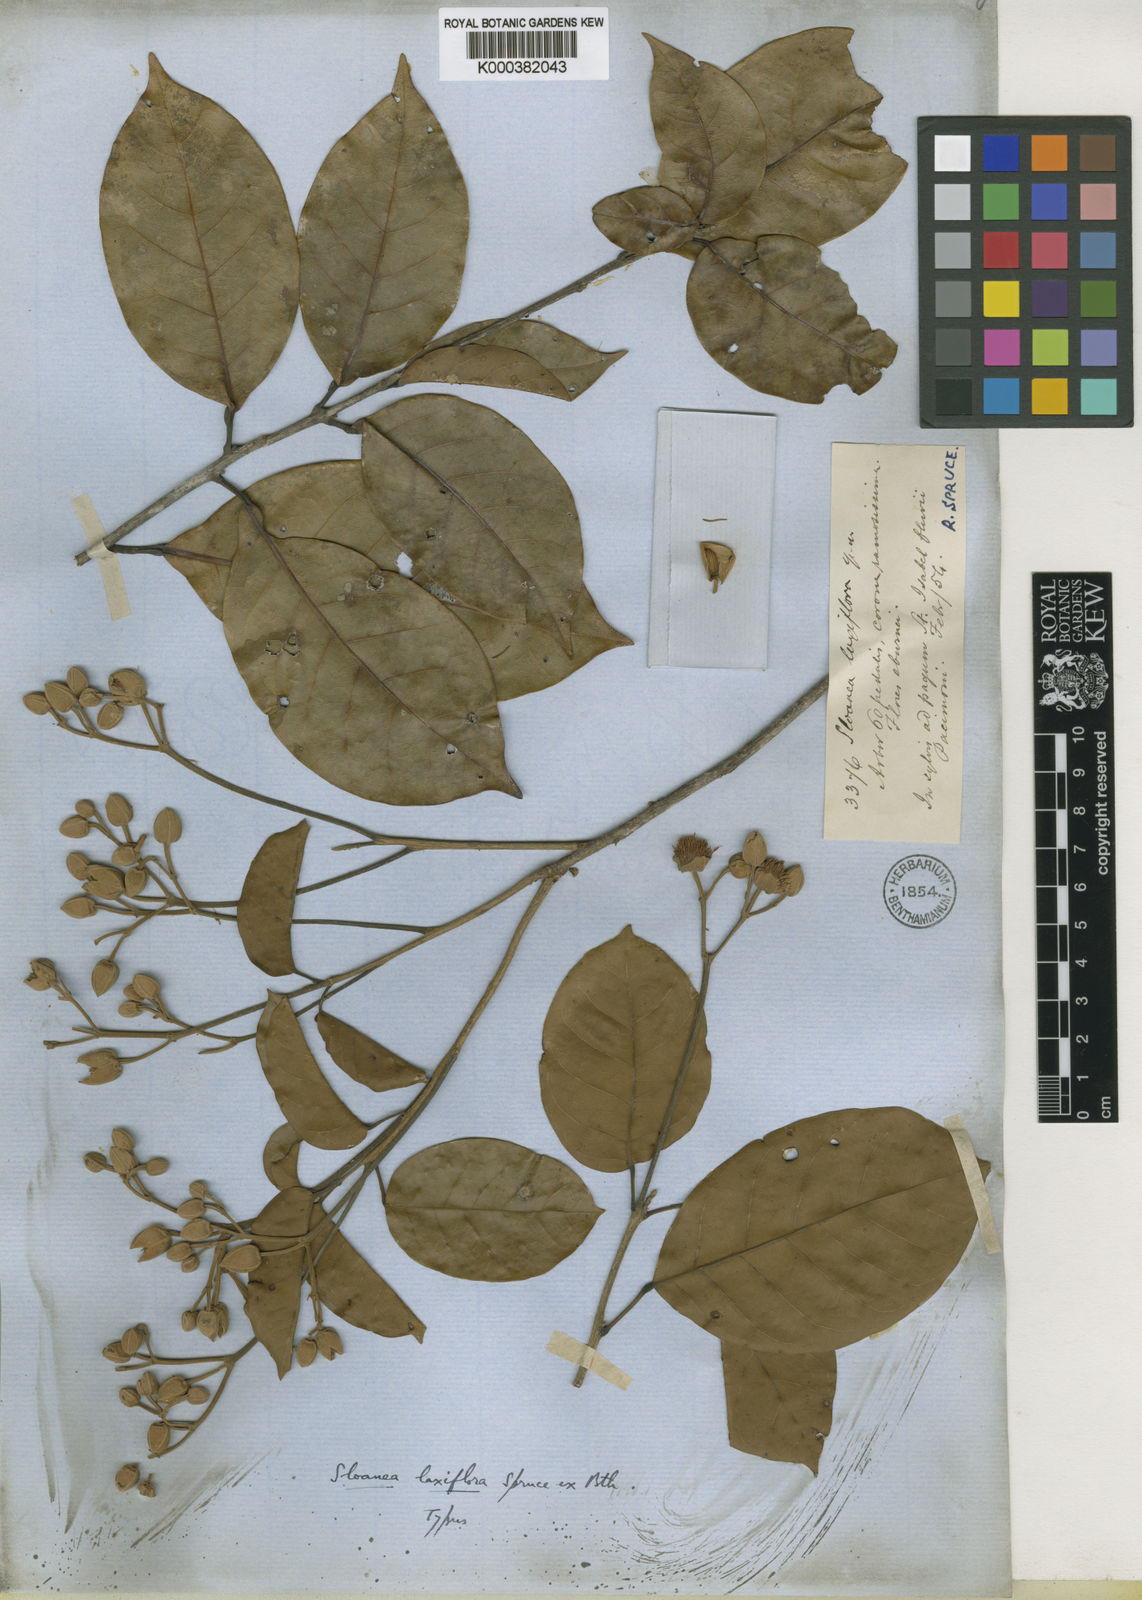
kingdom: Plantae
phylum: Tracheophyta
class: Magnoliopsida
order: Oxalidales
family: Elaeocarpaceae
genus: Sloanea
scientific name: Sloanea laxiflora
